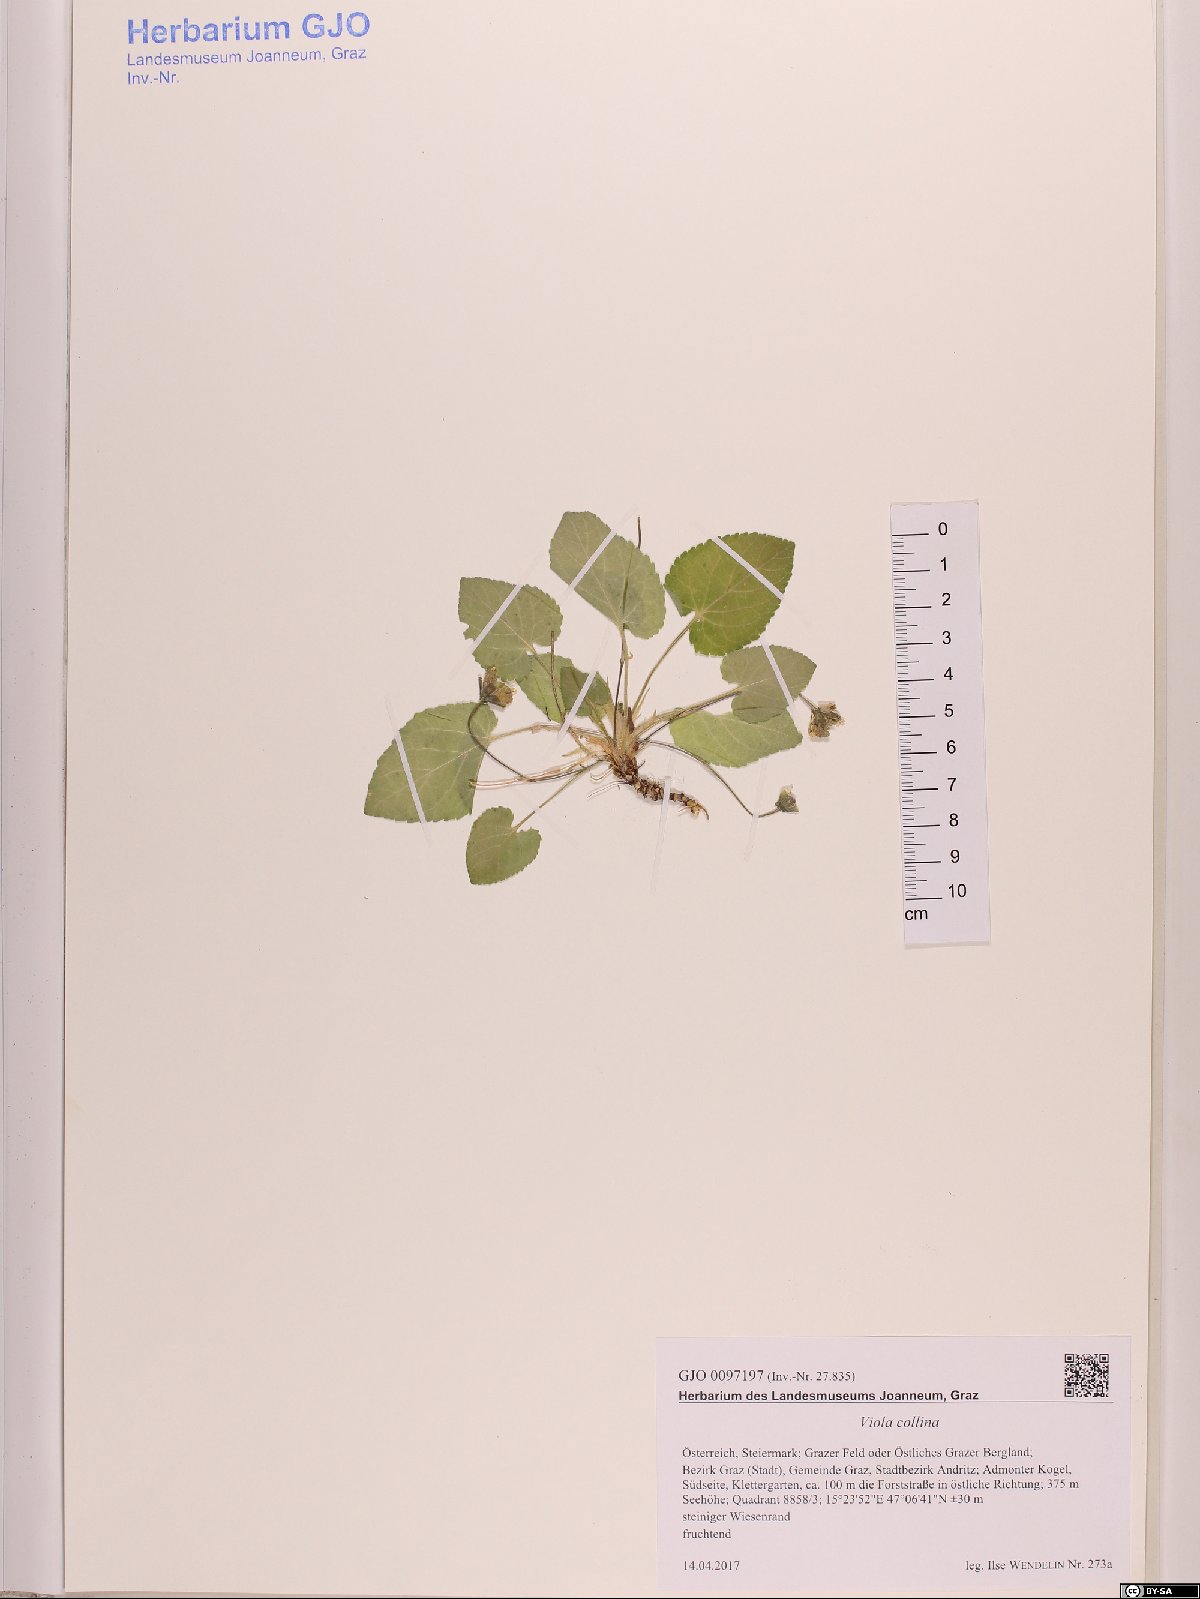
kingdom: Plantae
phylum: Tracheophyta
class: Magnoliopsida
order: Malpighiales
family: Violaceae
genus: Viola
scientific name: Viola collina
